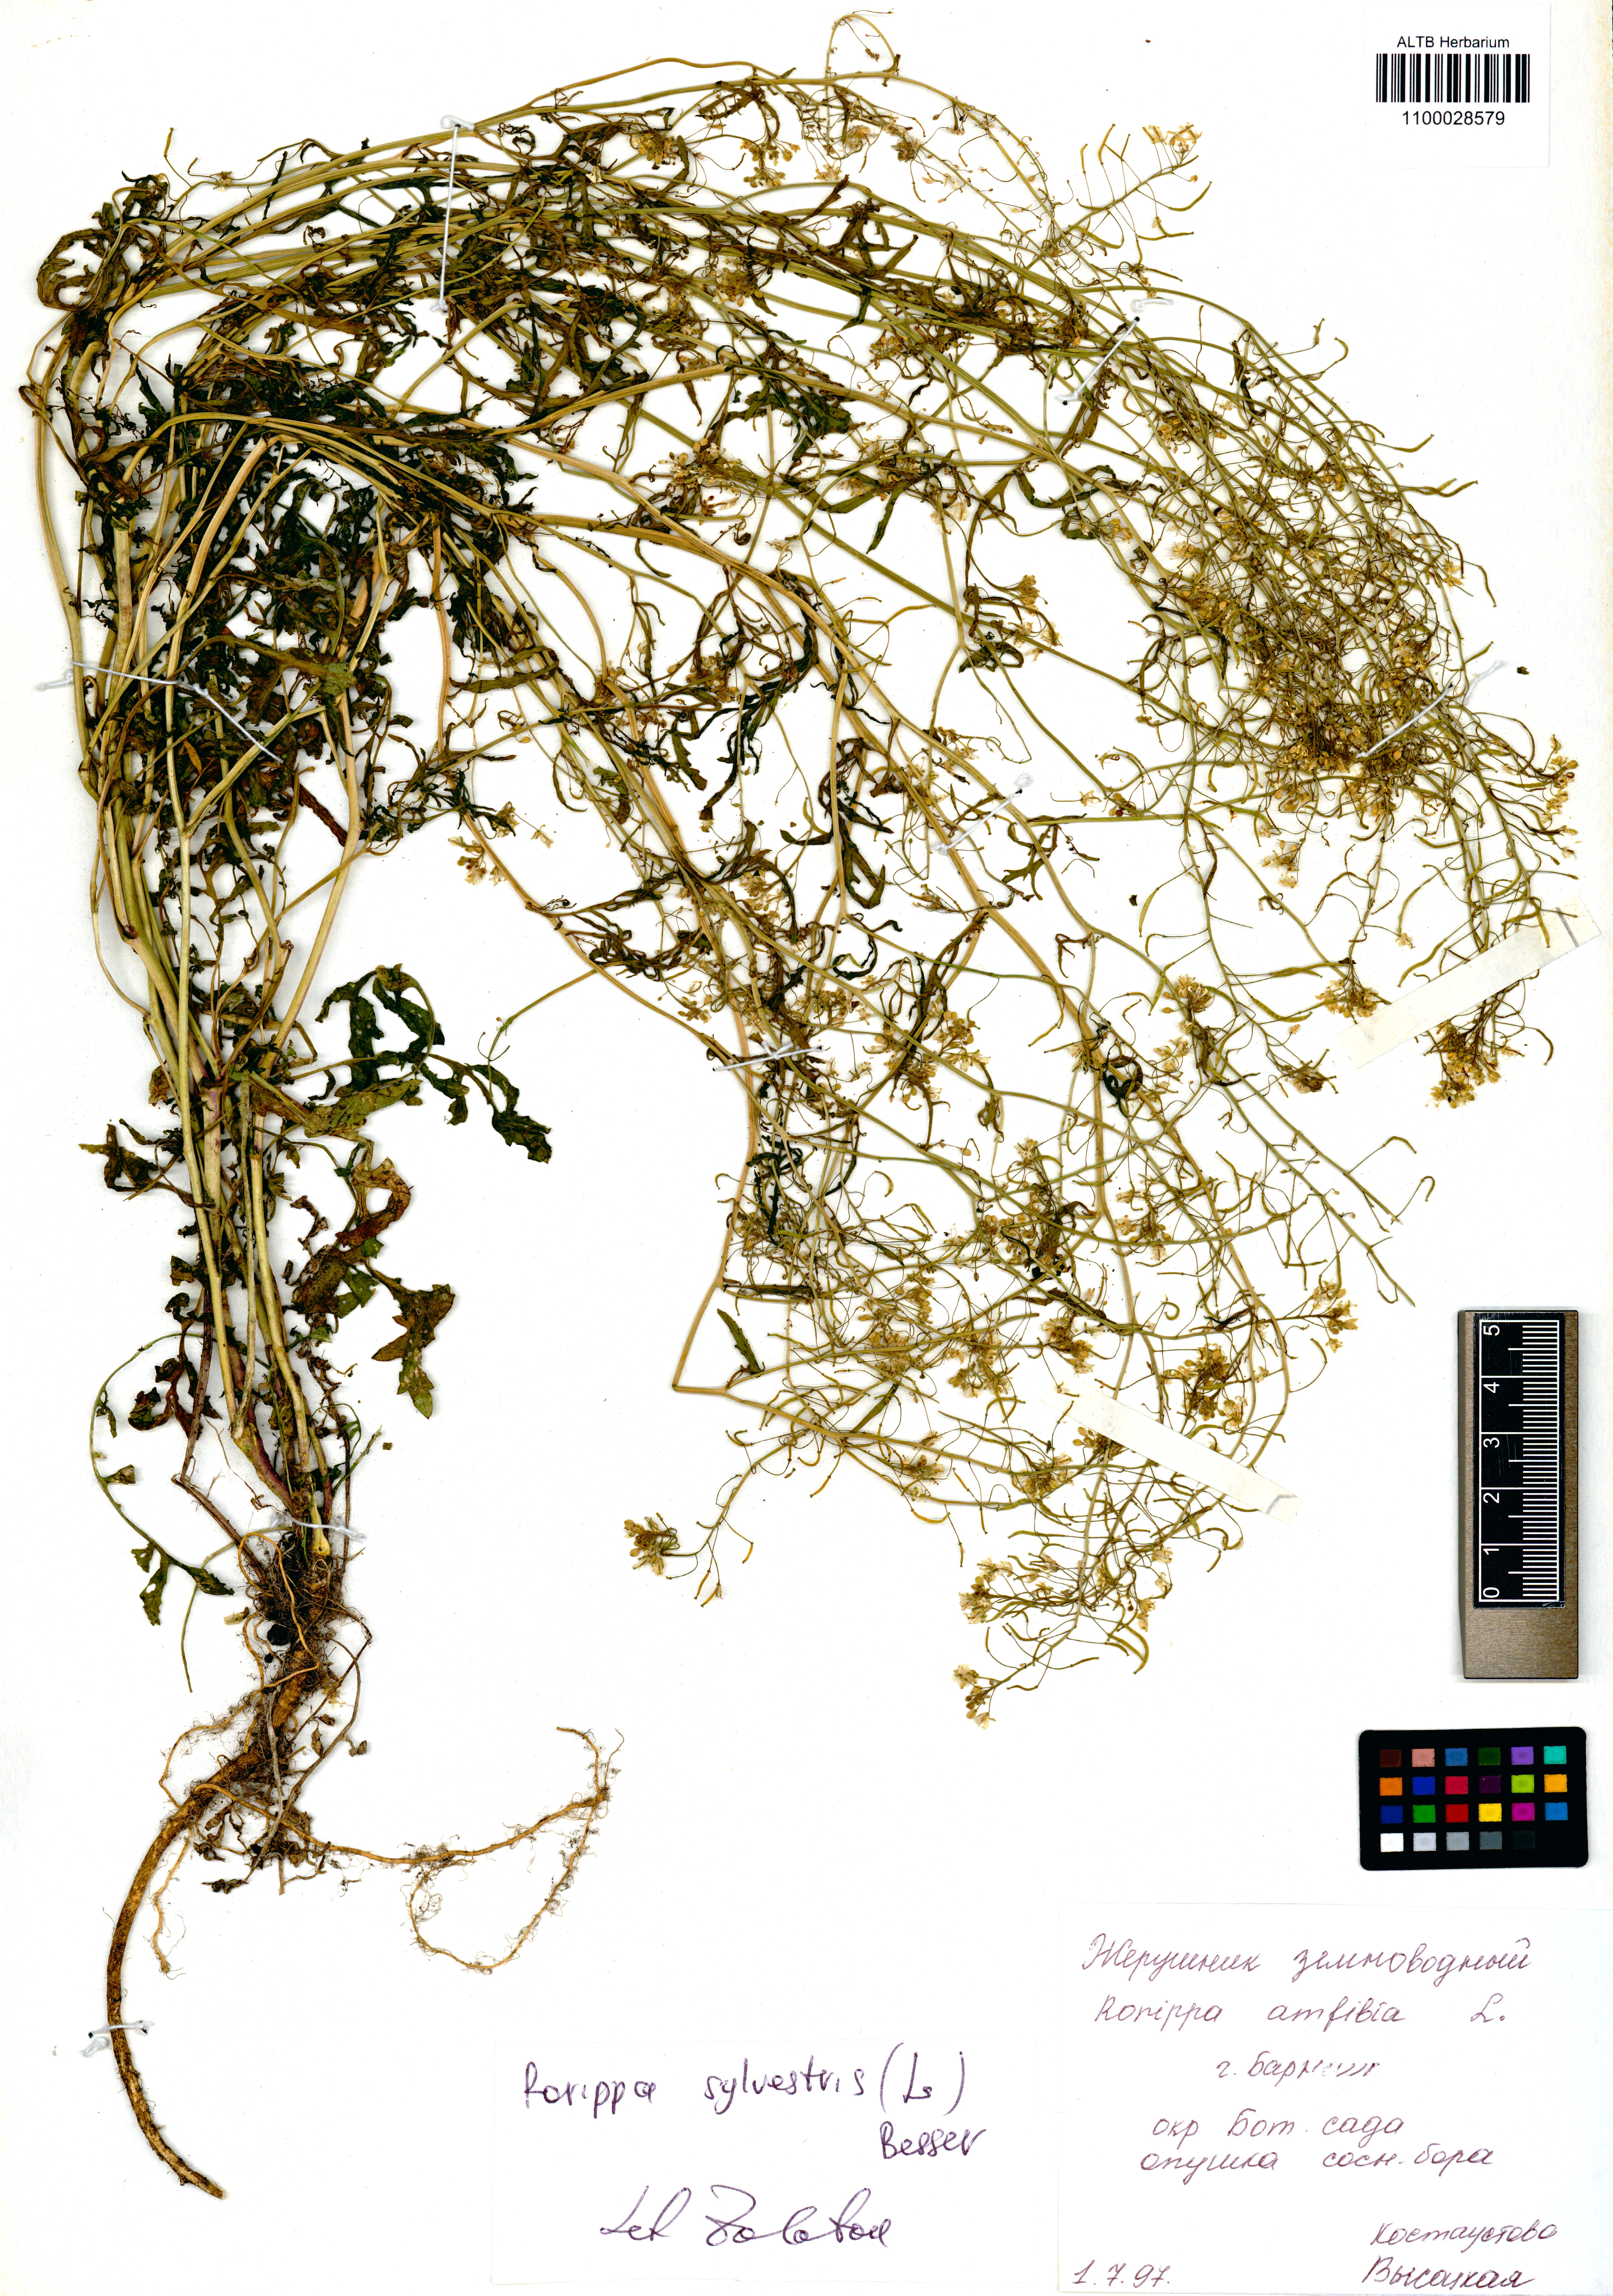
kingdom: Plantae
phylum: Tracheophyta
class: Magnoliopsida
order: Brassicales
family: Brassicaceae
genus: Rorippa
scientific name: Rorippa sylvestris
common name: Creeping yellowcress
